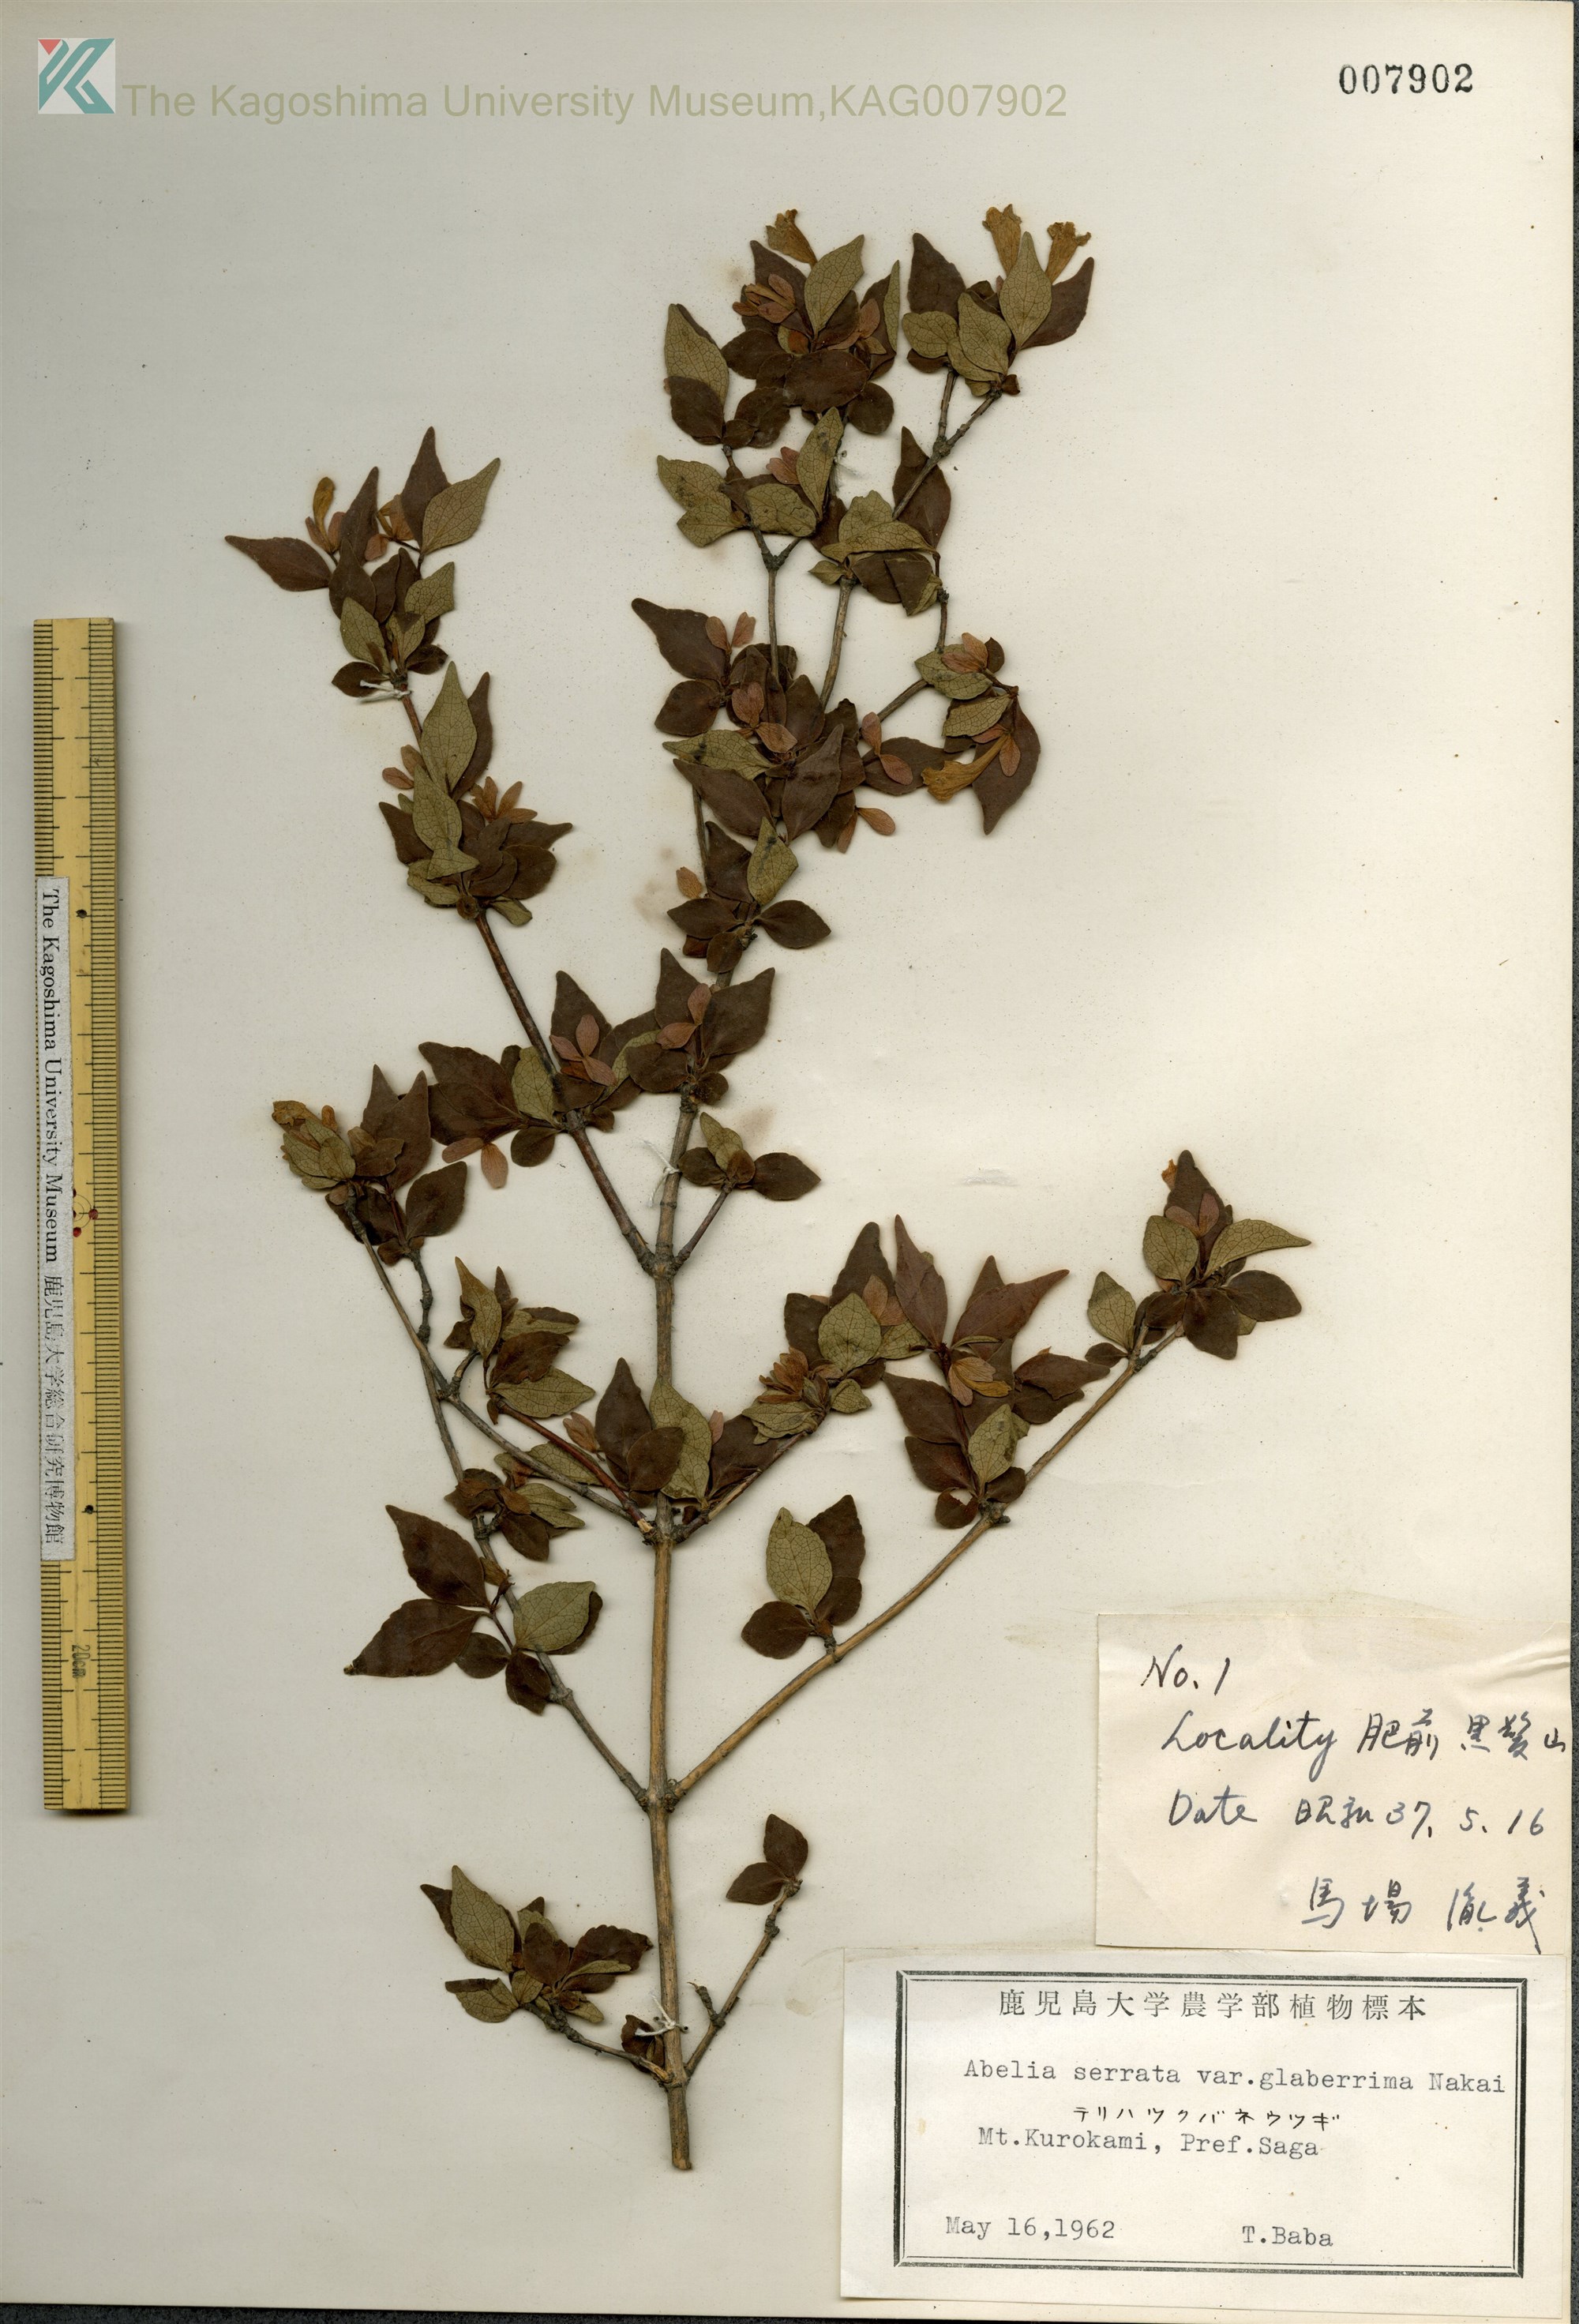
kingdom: Plantae
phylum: Tracheophyta
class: Magnoliopsida
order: Dipsacales
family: Caprifoliaceae
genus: Diabelia
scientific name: Diabelia serrata
